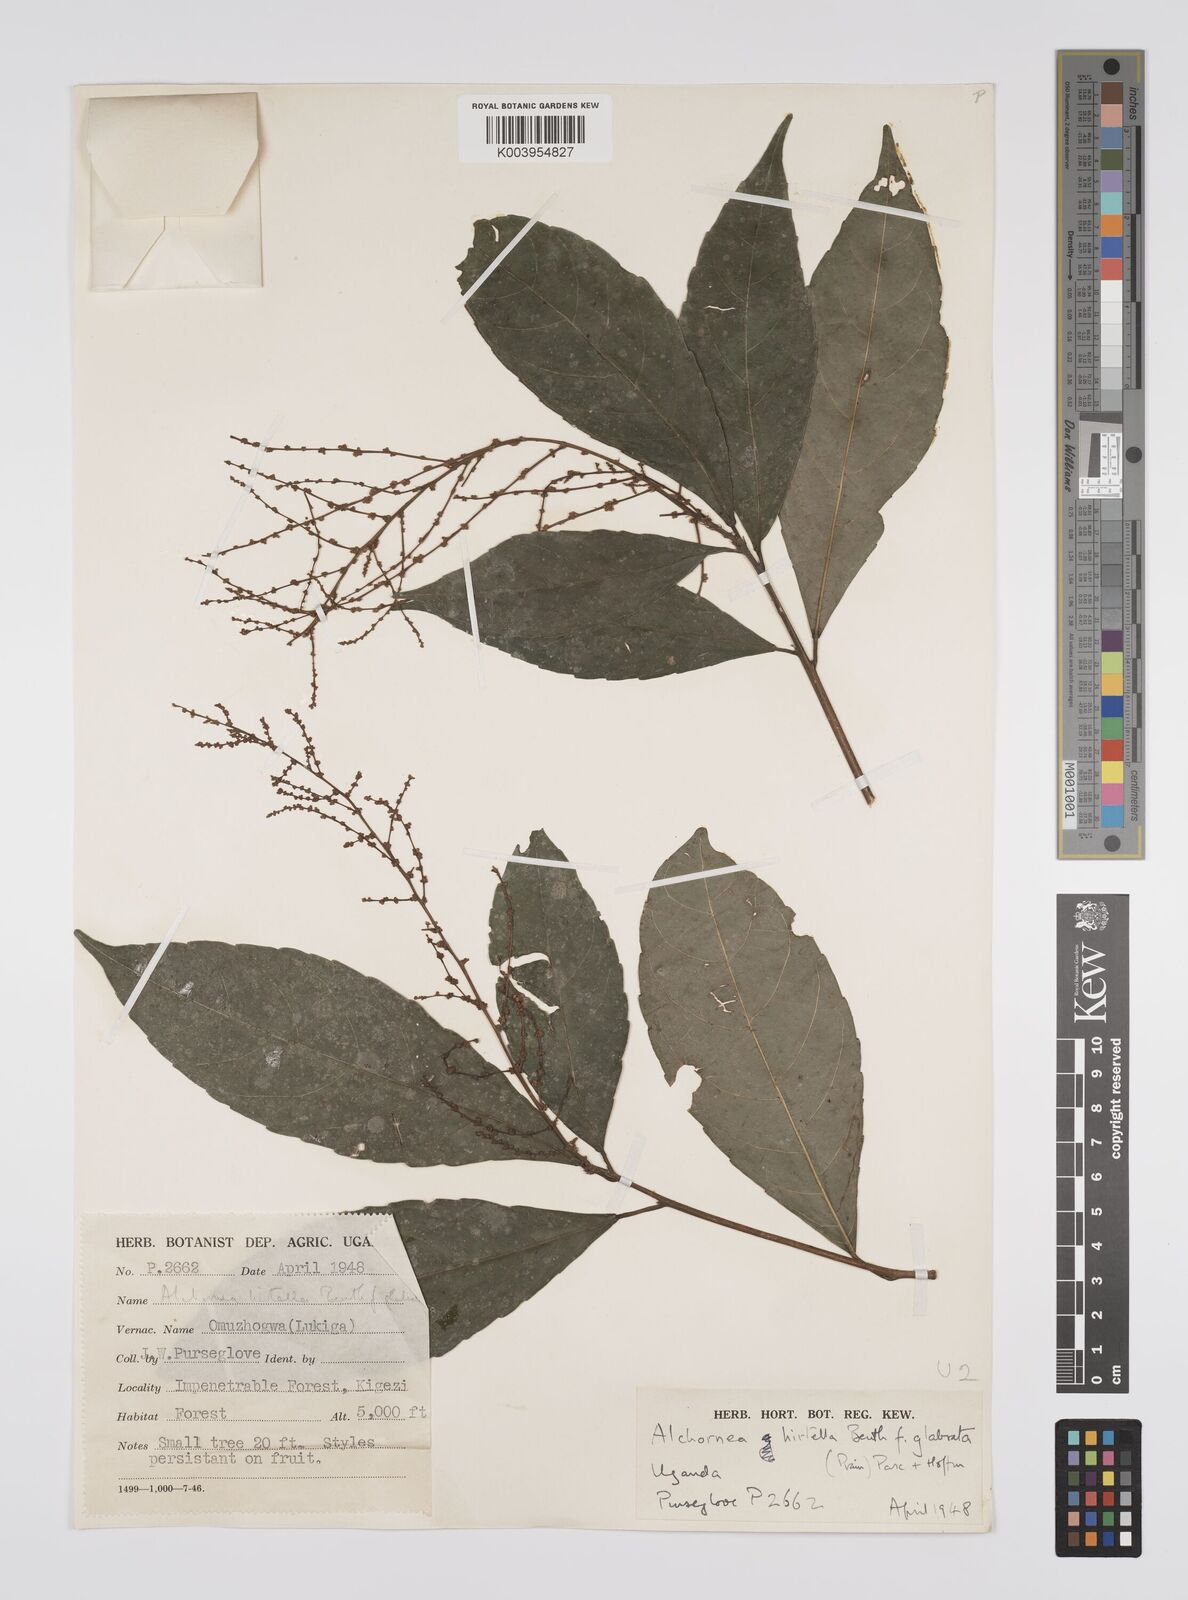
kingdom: Plantae
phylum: Tracheophyta
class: Magnoliopsida
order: Malpighiales
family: Euphorbiaceae
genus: Alchornea
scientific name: Alchornea hirtella
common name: Forest bead-string
